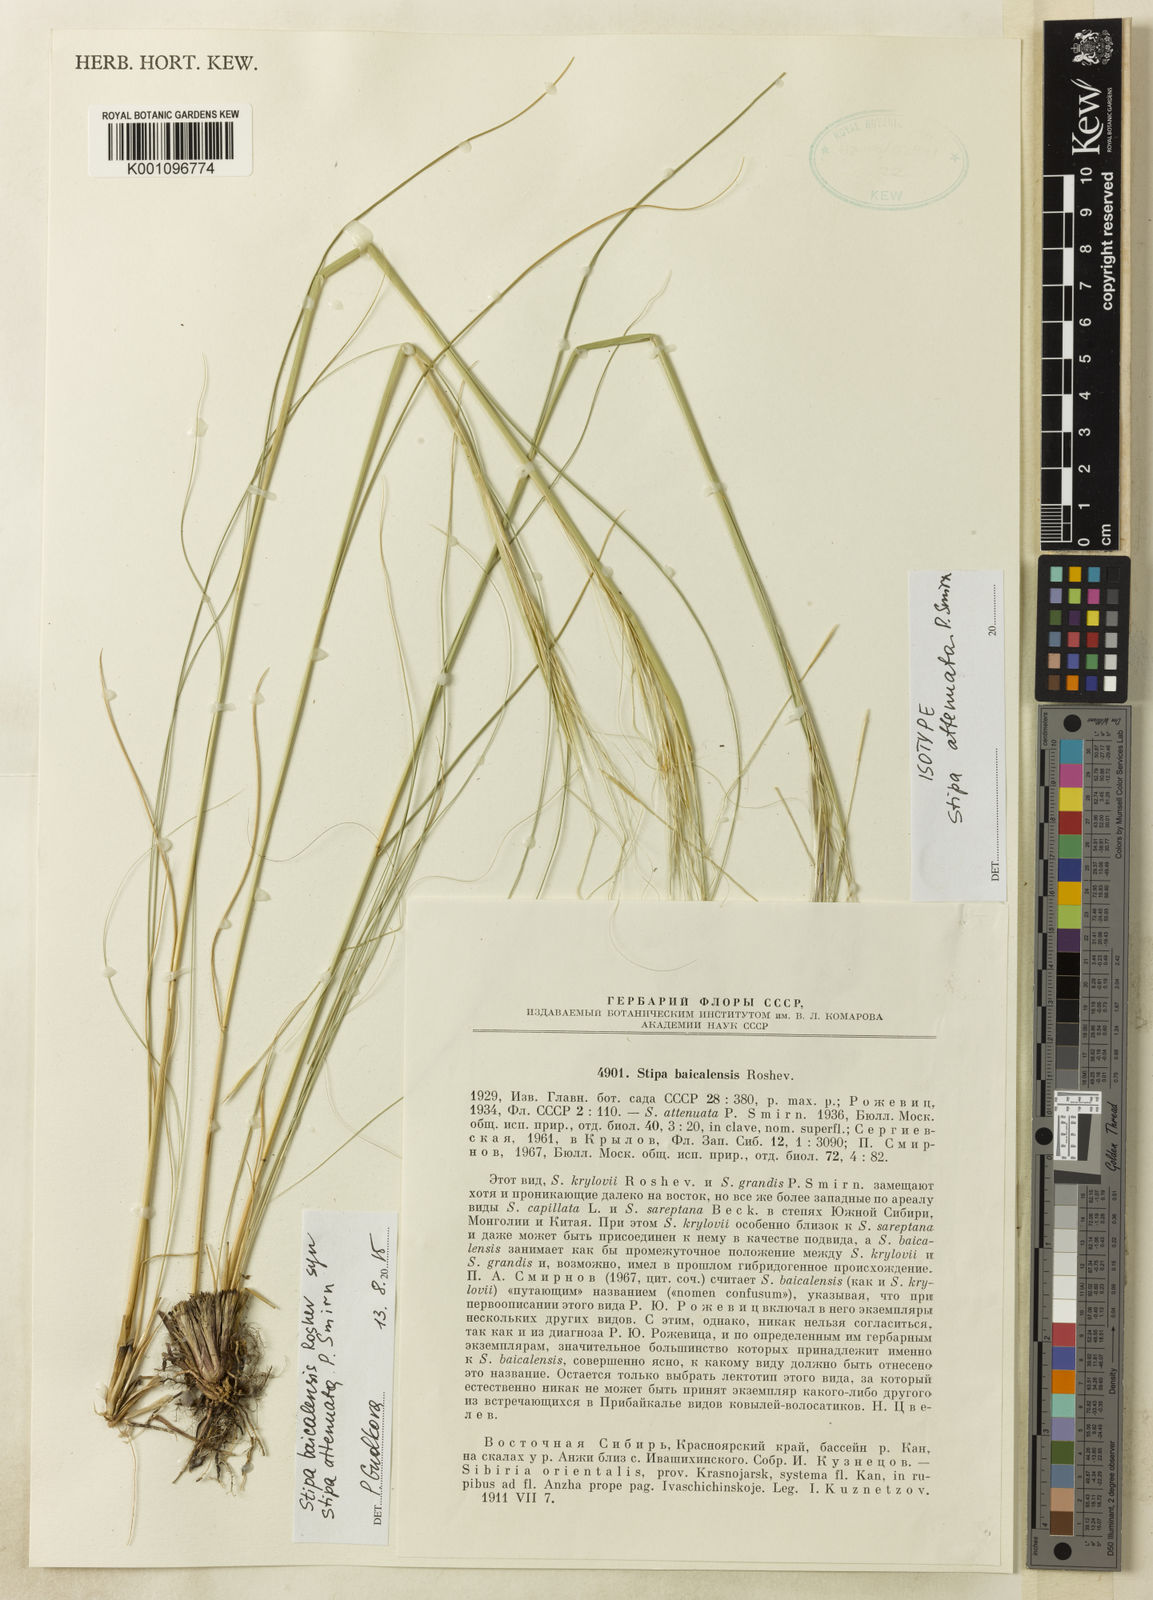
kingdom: Plantae
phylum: Tracheophyta
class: Liliopsida
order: Poales
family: Poaceae
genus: Stipa
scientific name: Stipa baicalensis
